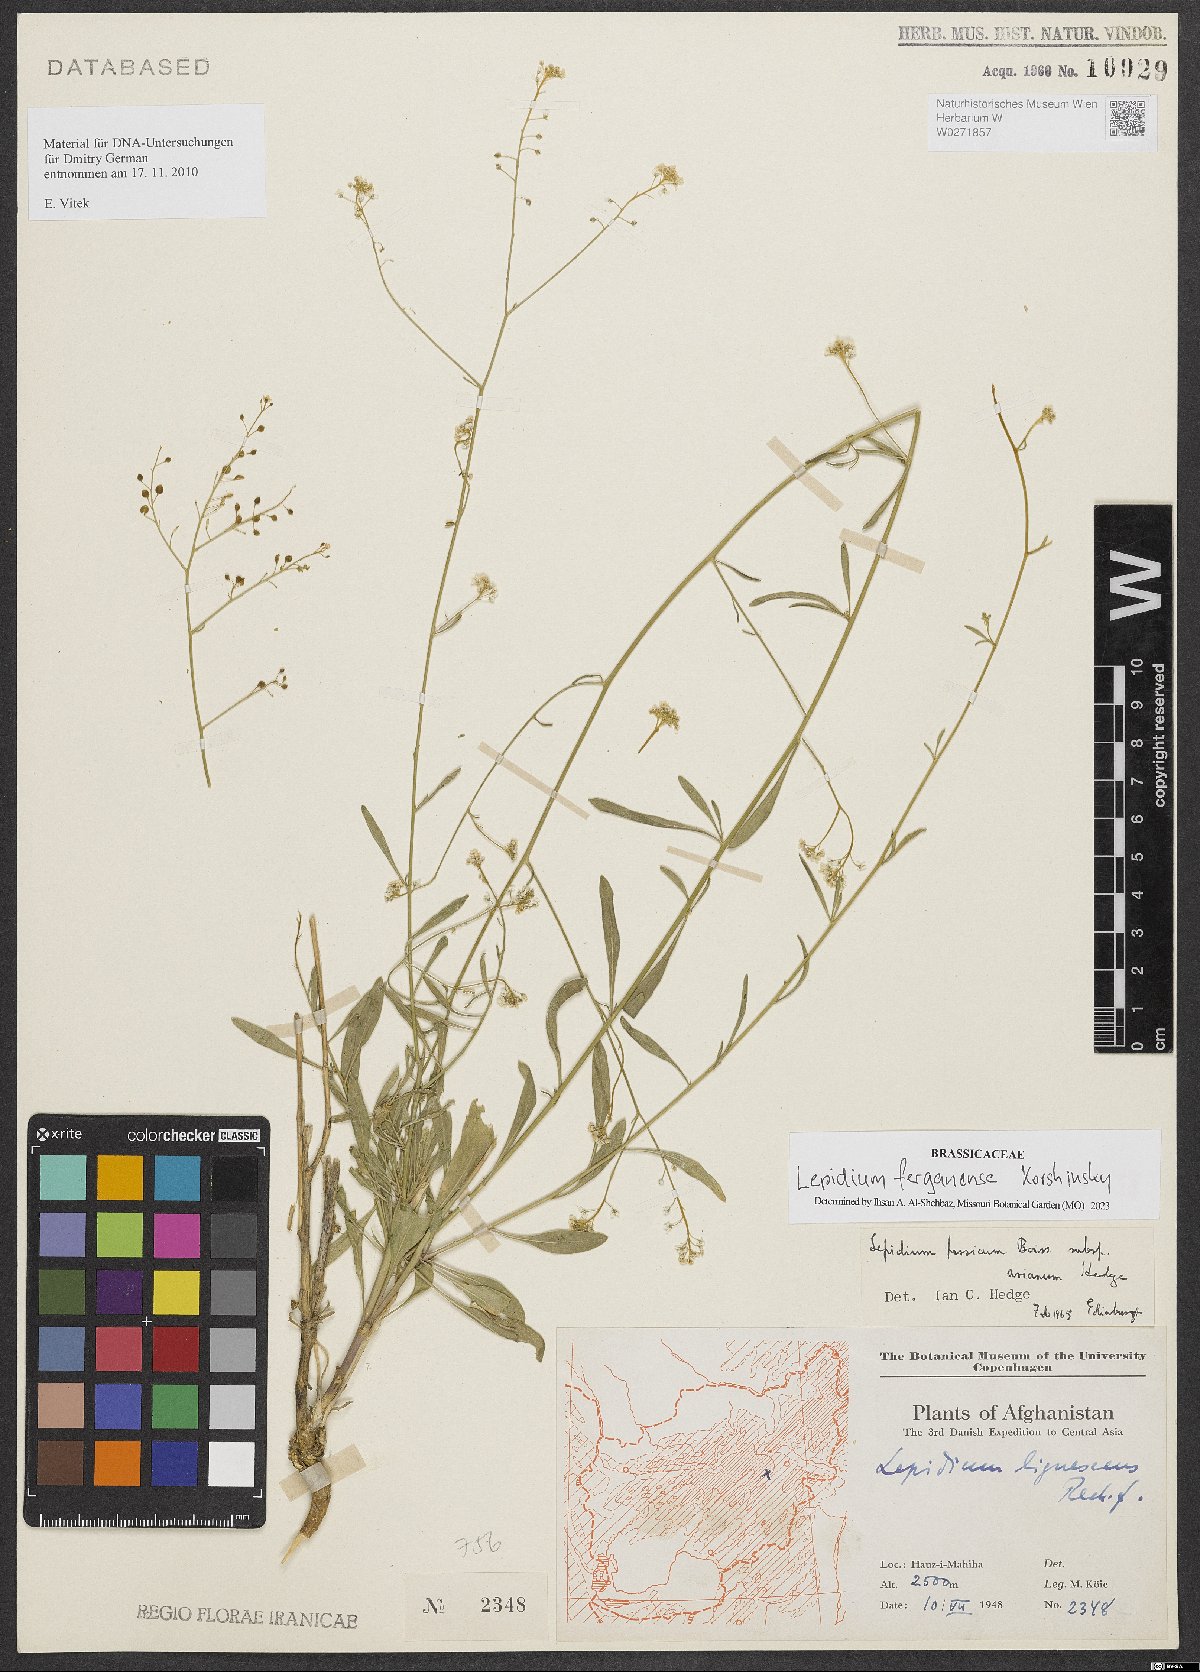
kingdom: Plantae
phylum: Tracheophyta
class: Magnoliopsida
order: Brassicales
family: Brassicaceae
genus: Lepidium
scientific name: Lepidium ferganense
